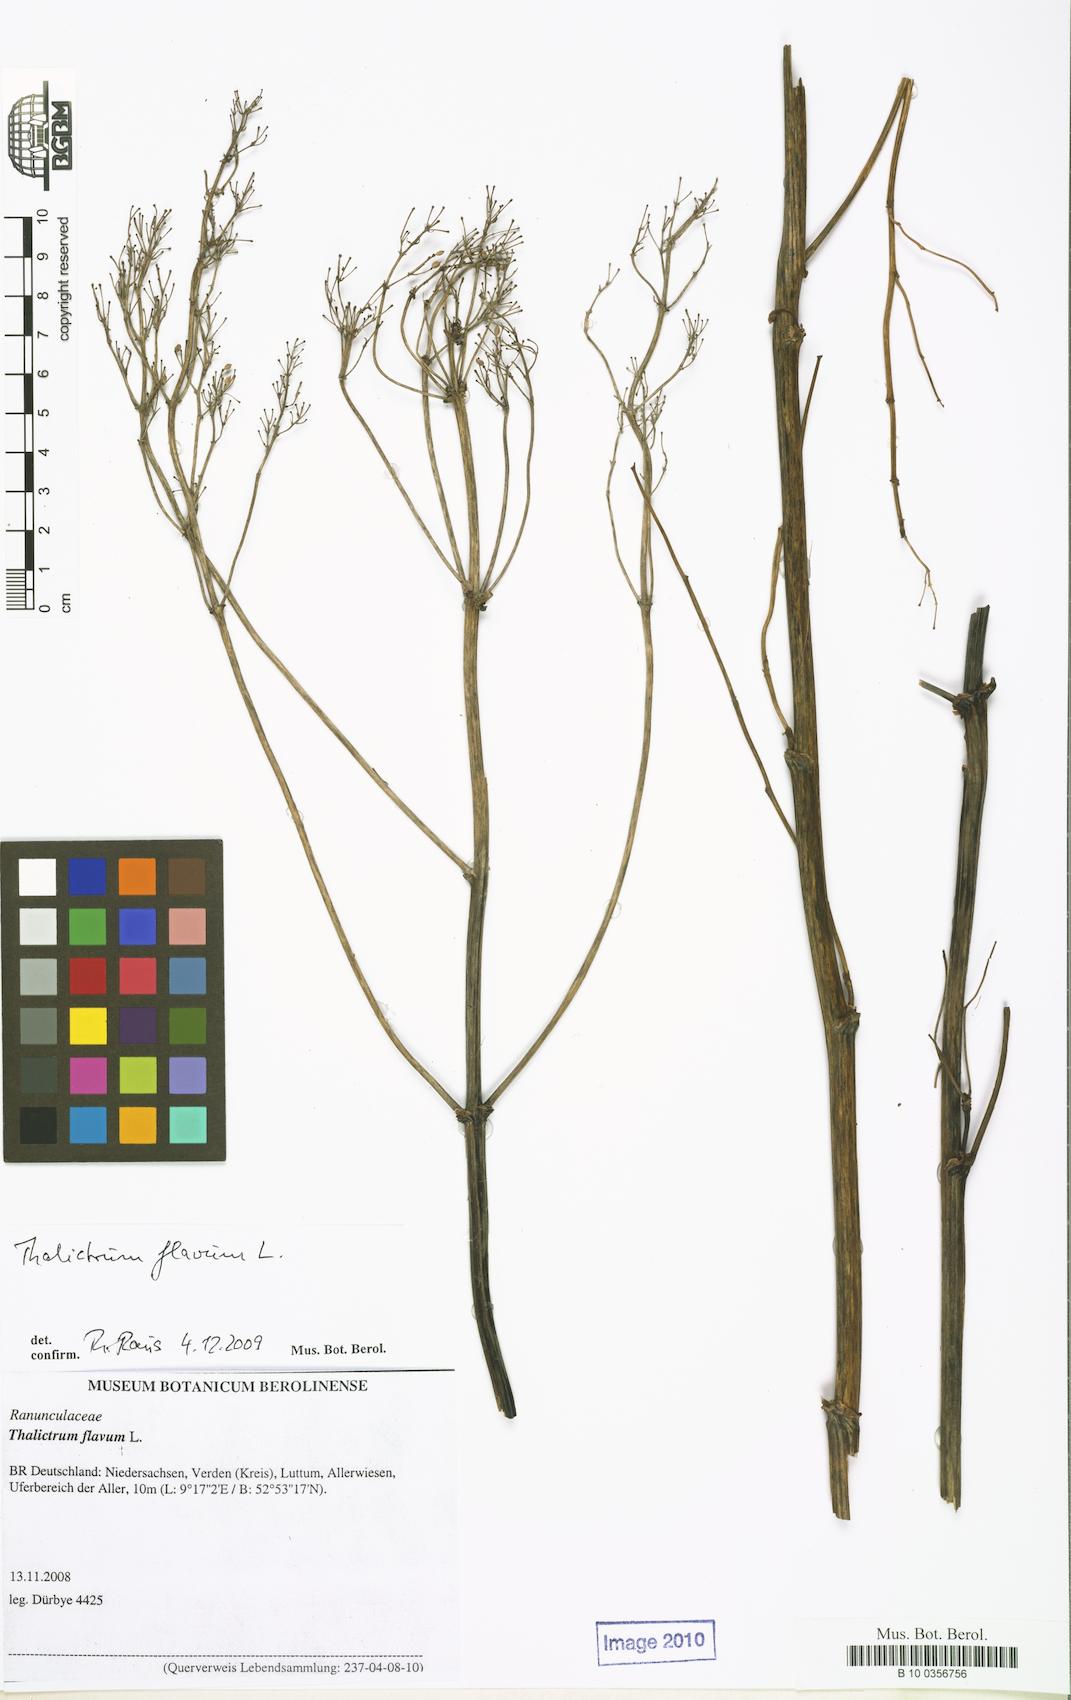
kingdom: Plantae
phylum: Tracheophyta
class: Magnoliopsida
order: Ranunculales
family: Ranunculaceae
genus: Thalictrum
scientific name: Thalictrum flavum
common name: Common meadow-rue
